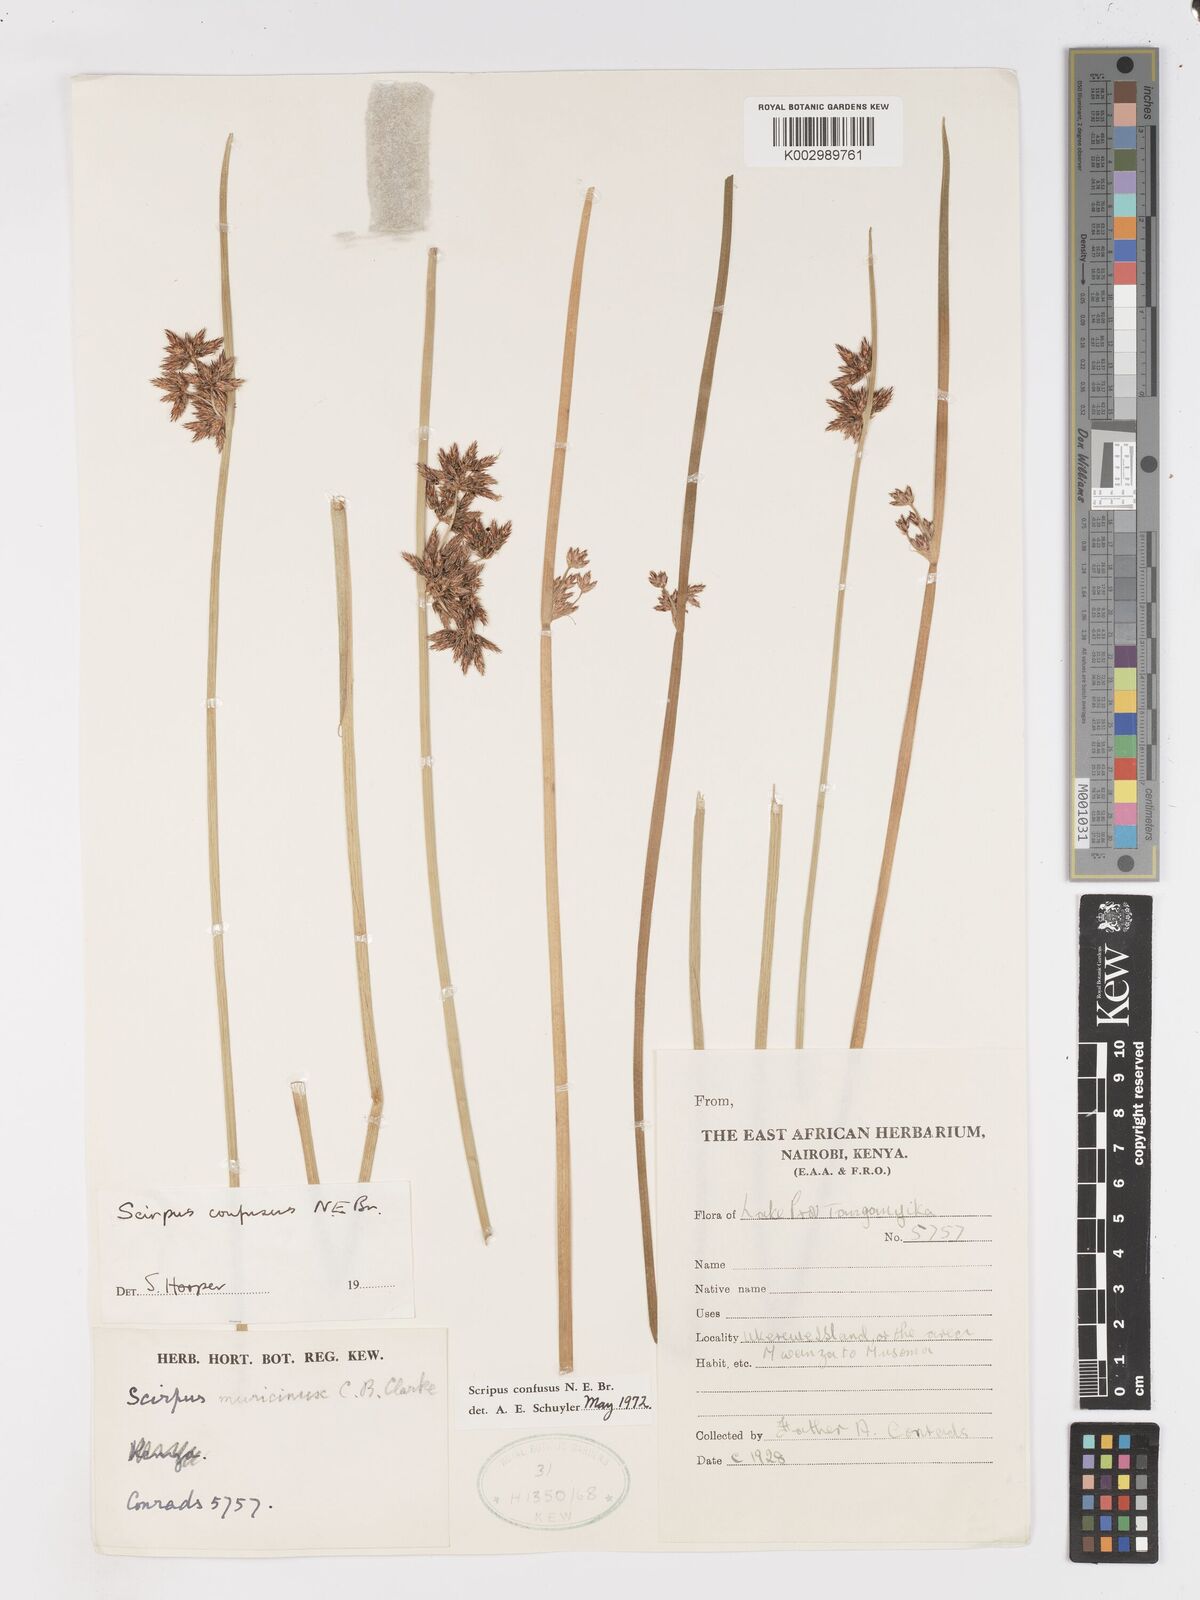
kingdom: Plantae
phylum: Tracheophyta
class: Liliopsida
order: Poales
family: Cyperaceae
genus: Schoenoplectiella
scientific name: Schoenoplectiella confusa
